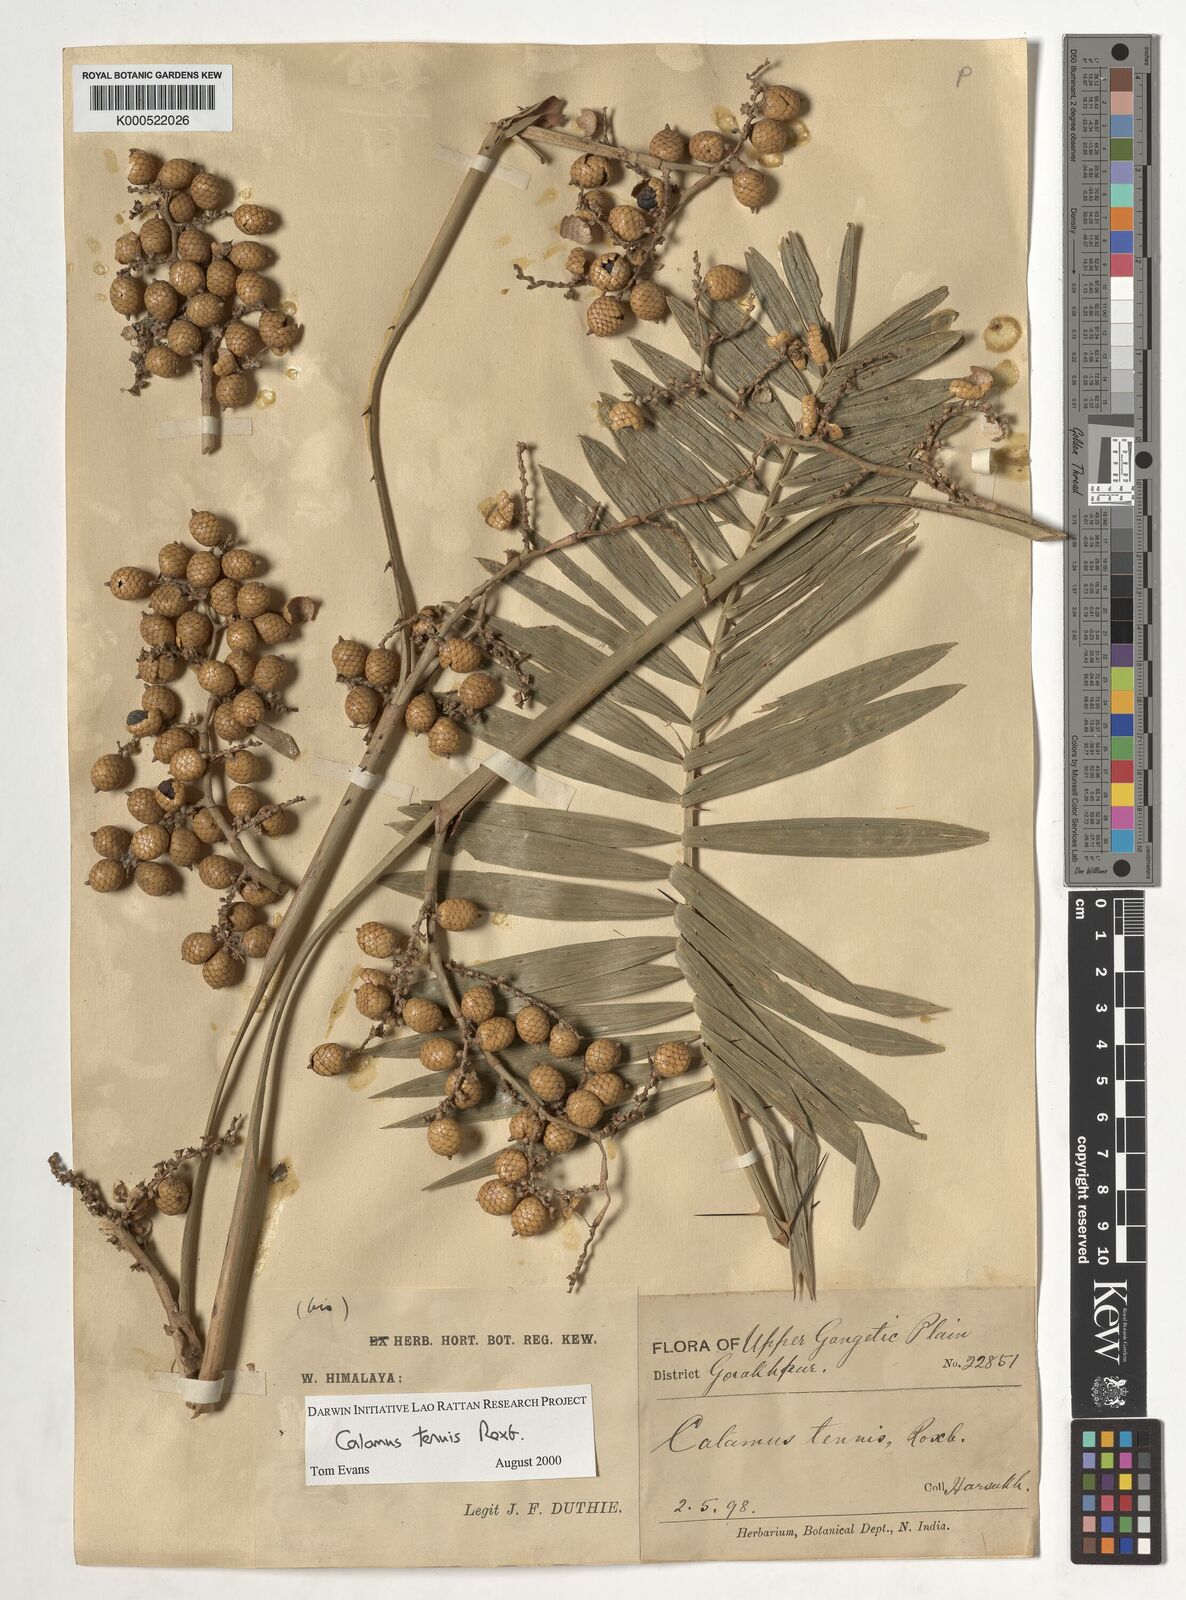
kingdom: Plantae
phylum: Tracheophyta
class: Liliopsida
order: Arecales
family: Arecaceae
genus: Calamus
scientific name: Calamus tenuis
